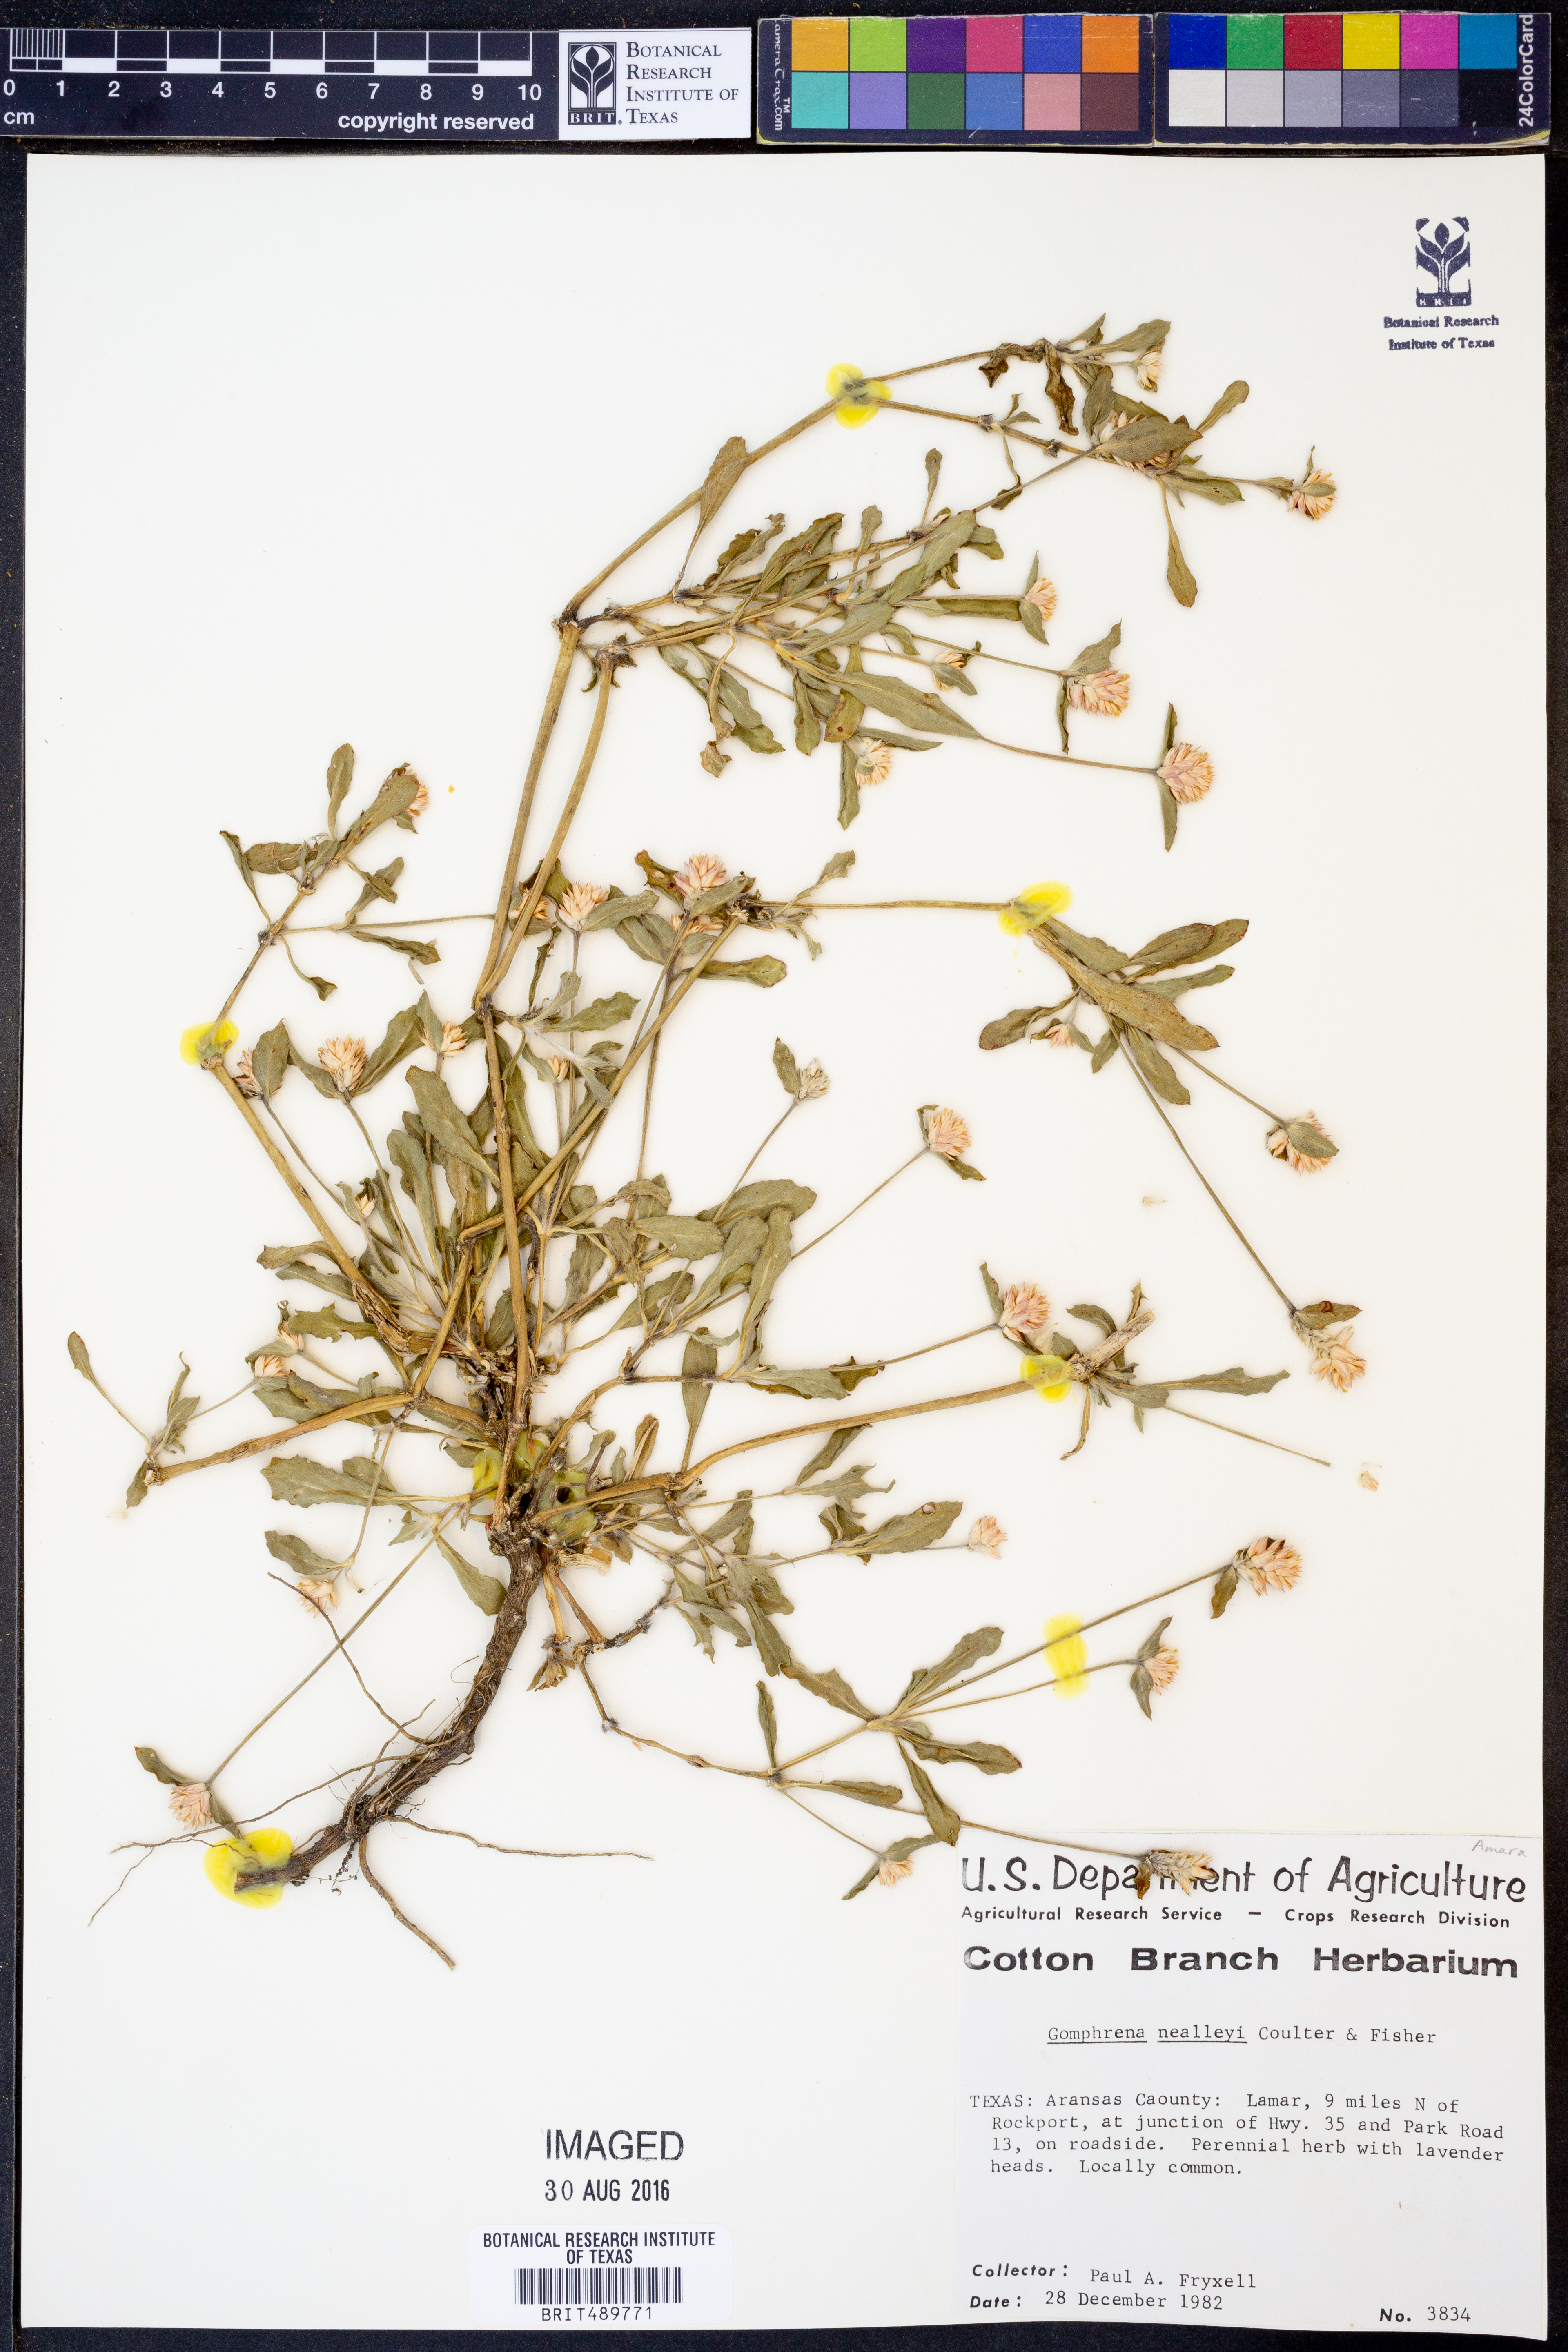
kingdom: Plantae
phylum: Tracheophyta
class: Magnoliopsida
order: Caryophyllales
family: Amaranthaceae
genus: Gomphrena
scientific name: Gomphrena nealleyi
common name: Nealley's globe-amaranth
